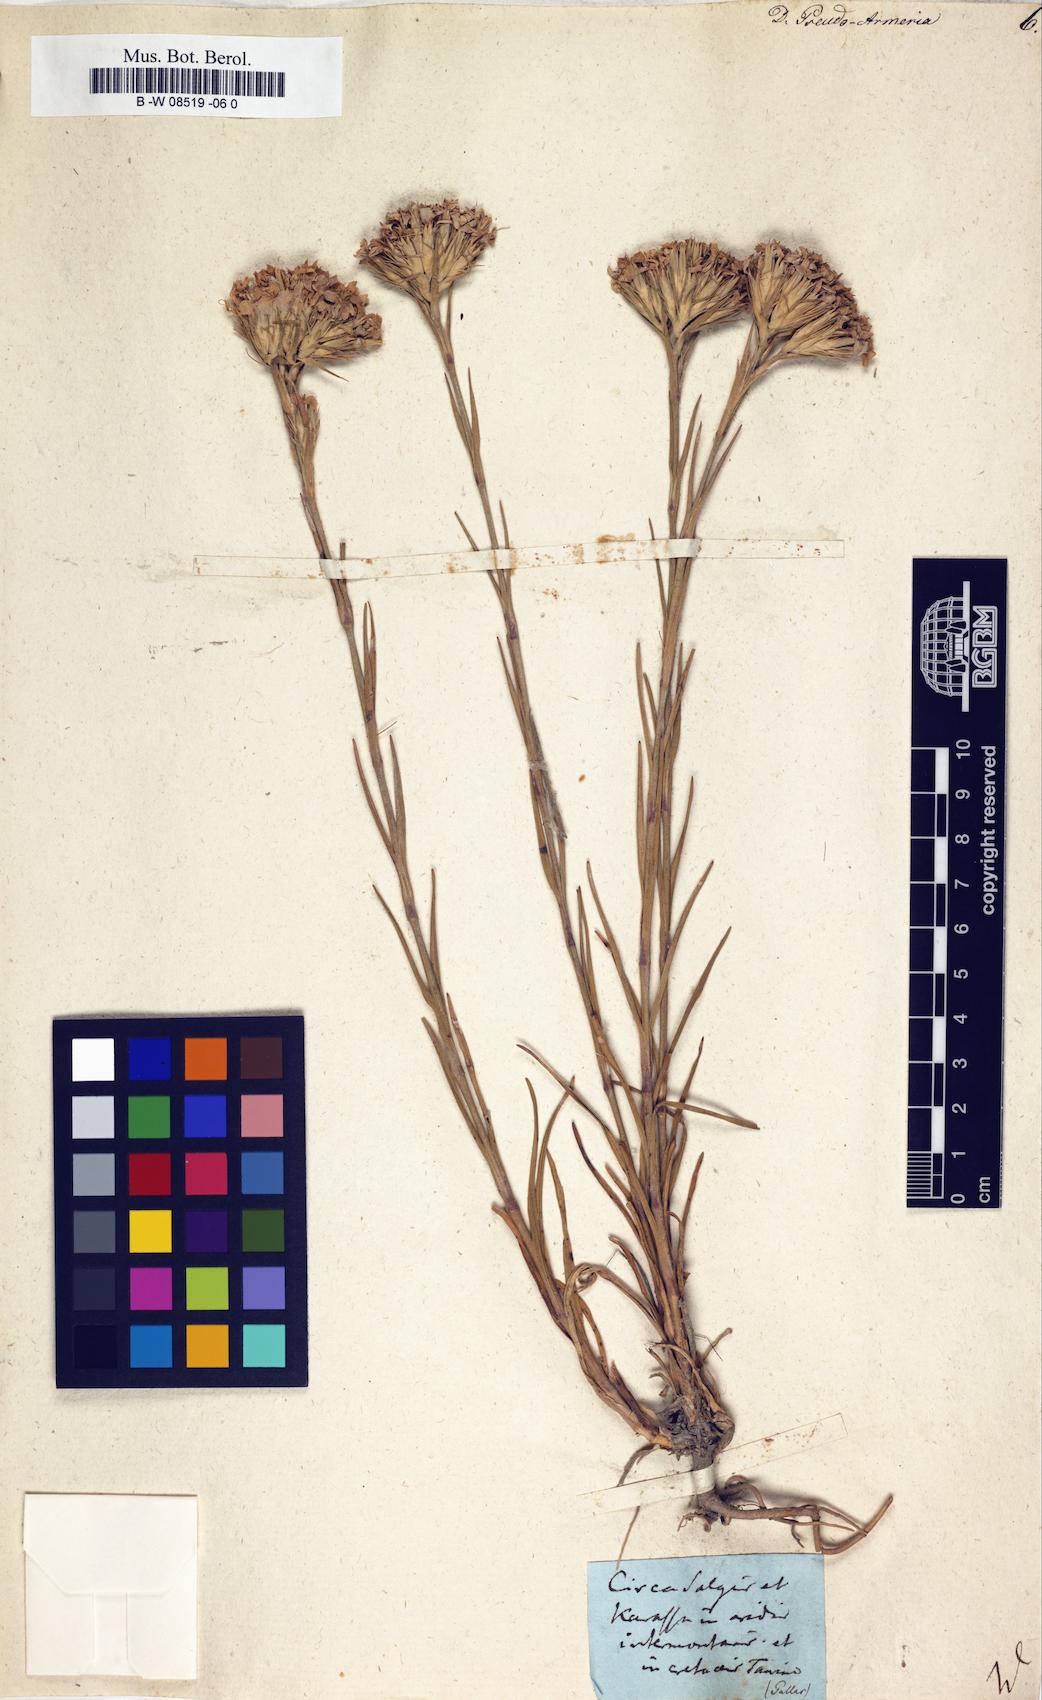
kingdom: Plantae
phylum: Tracheophyta
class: Magnoliopsida
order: Caryophyllales
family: Caryophyllaceae
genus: Dianthus
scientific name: Dianthus pseudoarmeria
